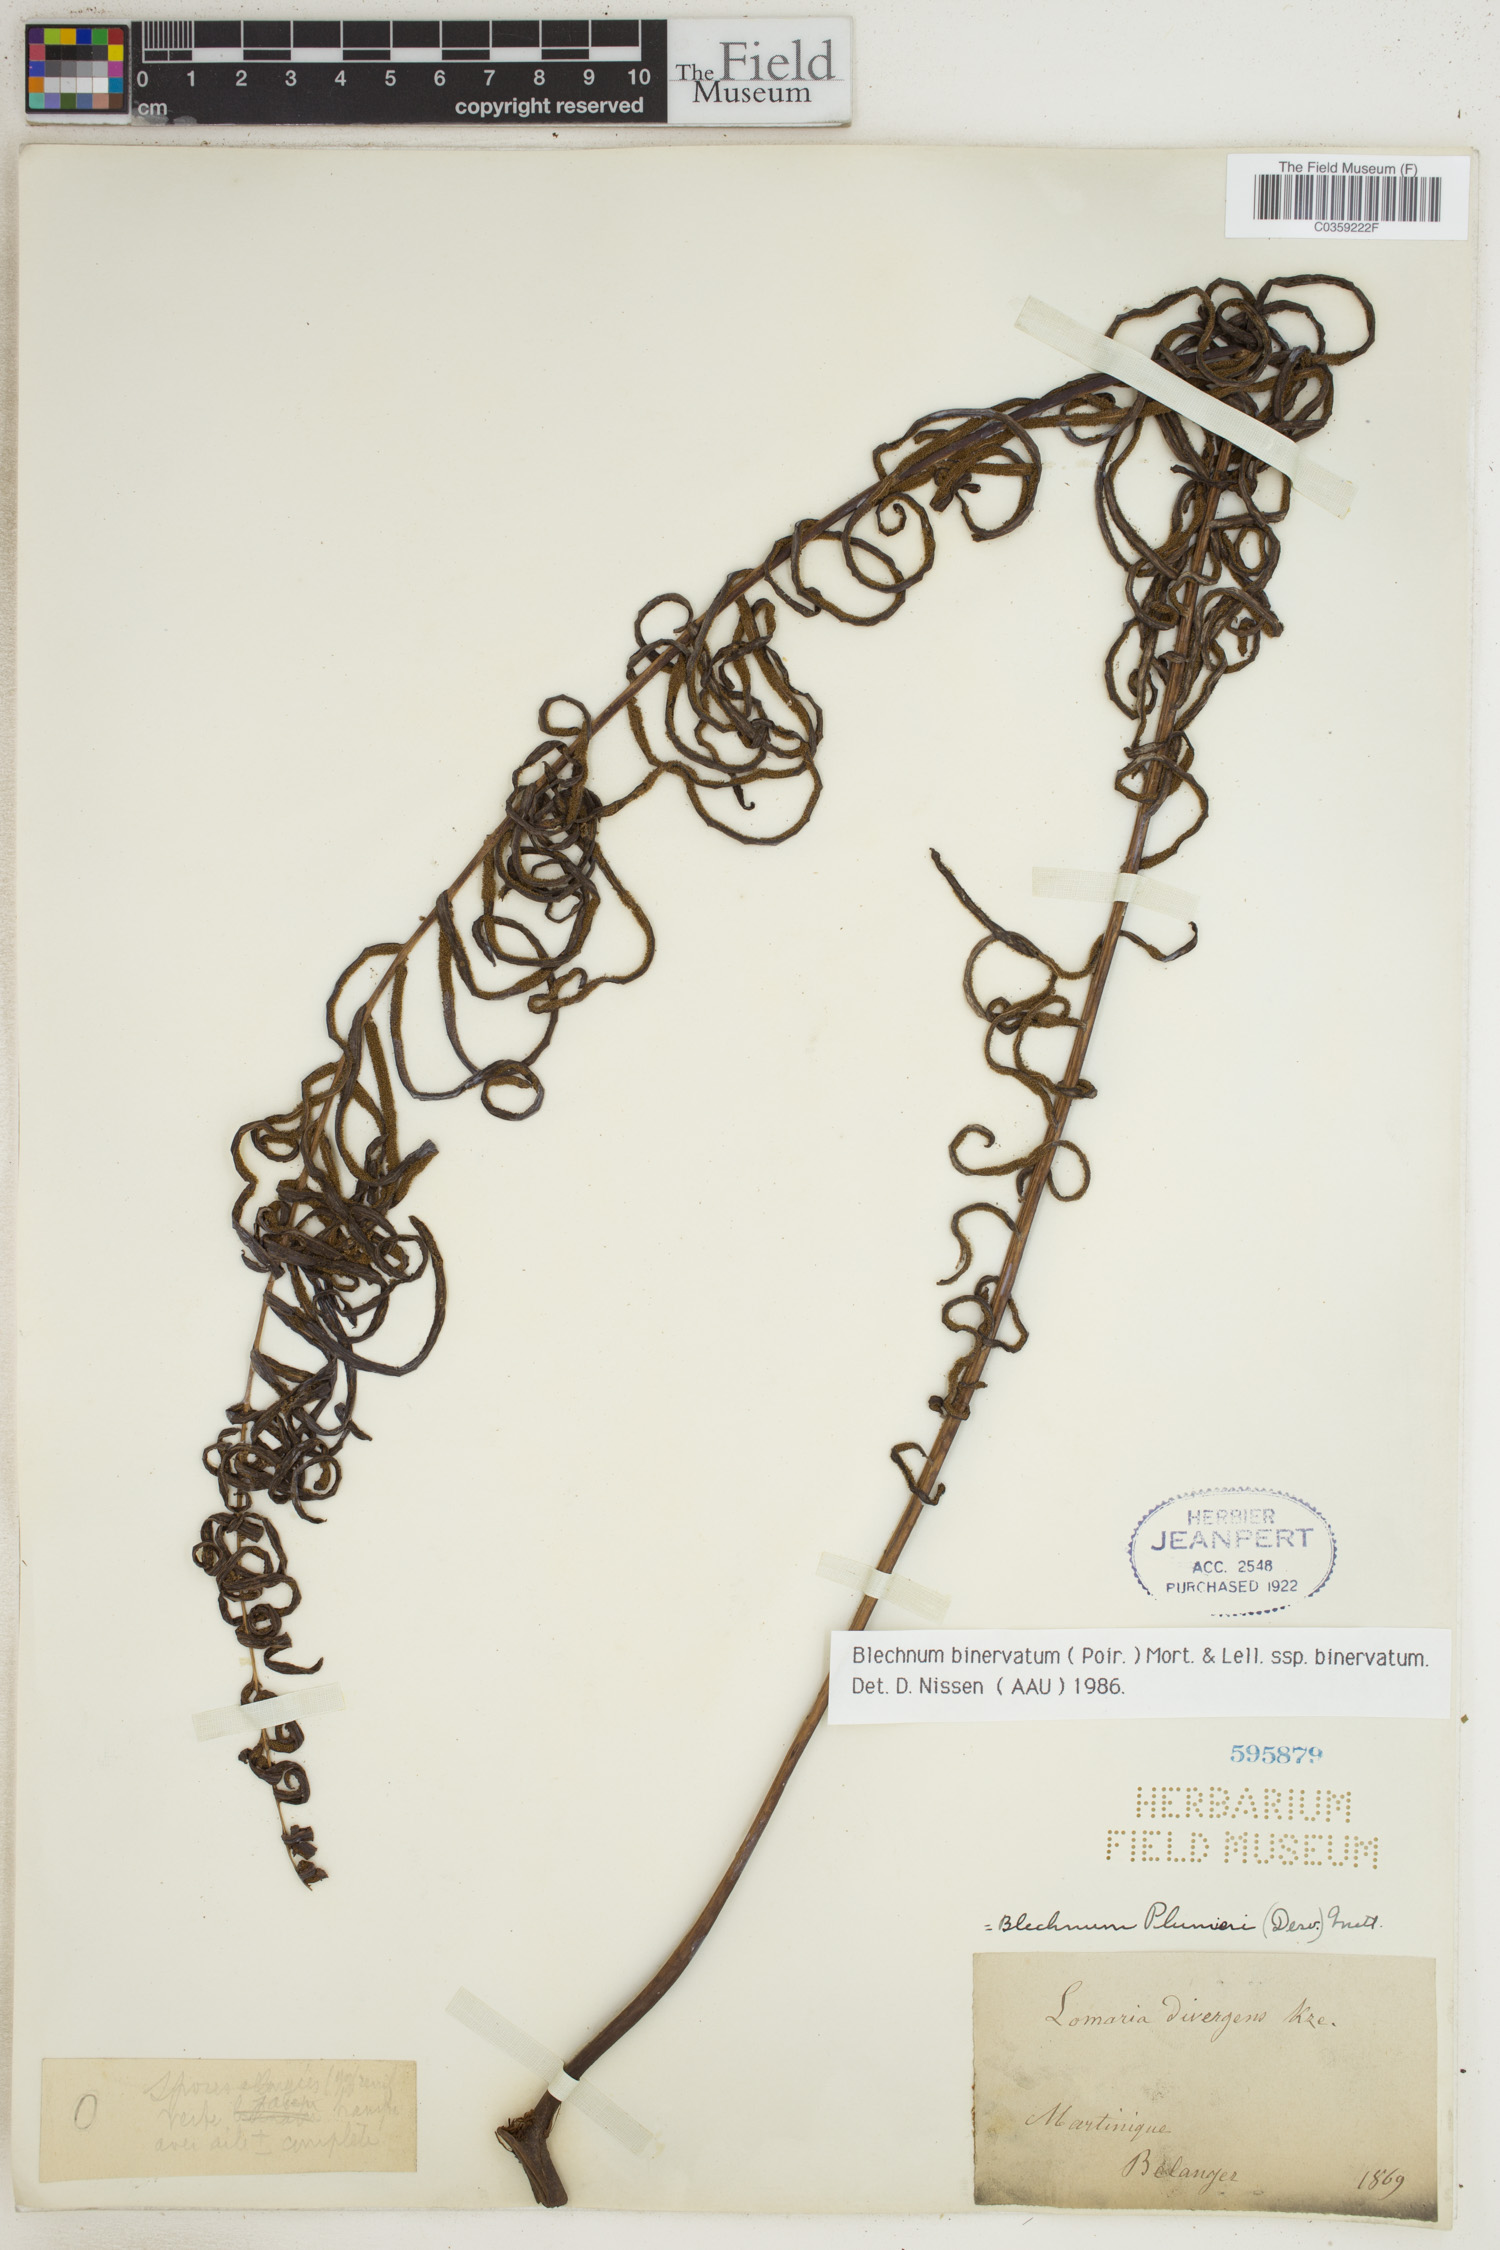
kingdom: Plantae
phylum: Tracheophyta
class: Polypodiopsida
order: Polypodiales
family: Blechnaceae
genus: Lomaridium
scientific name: Lomaridium binervatum
